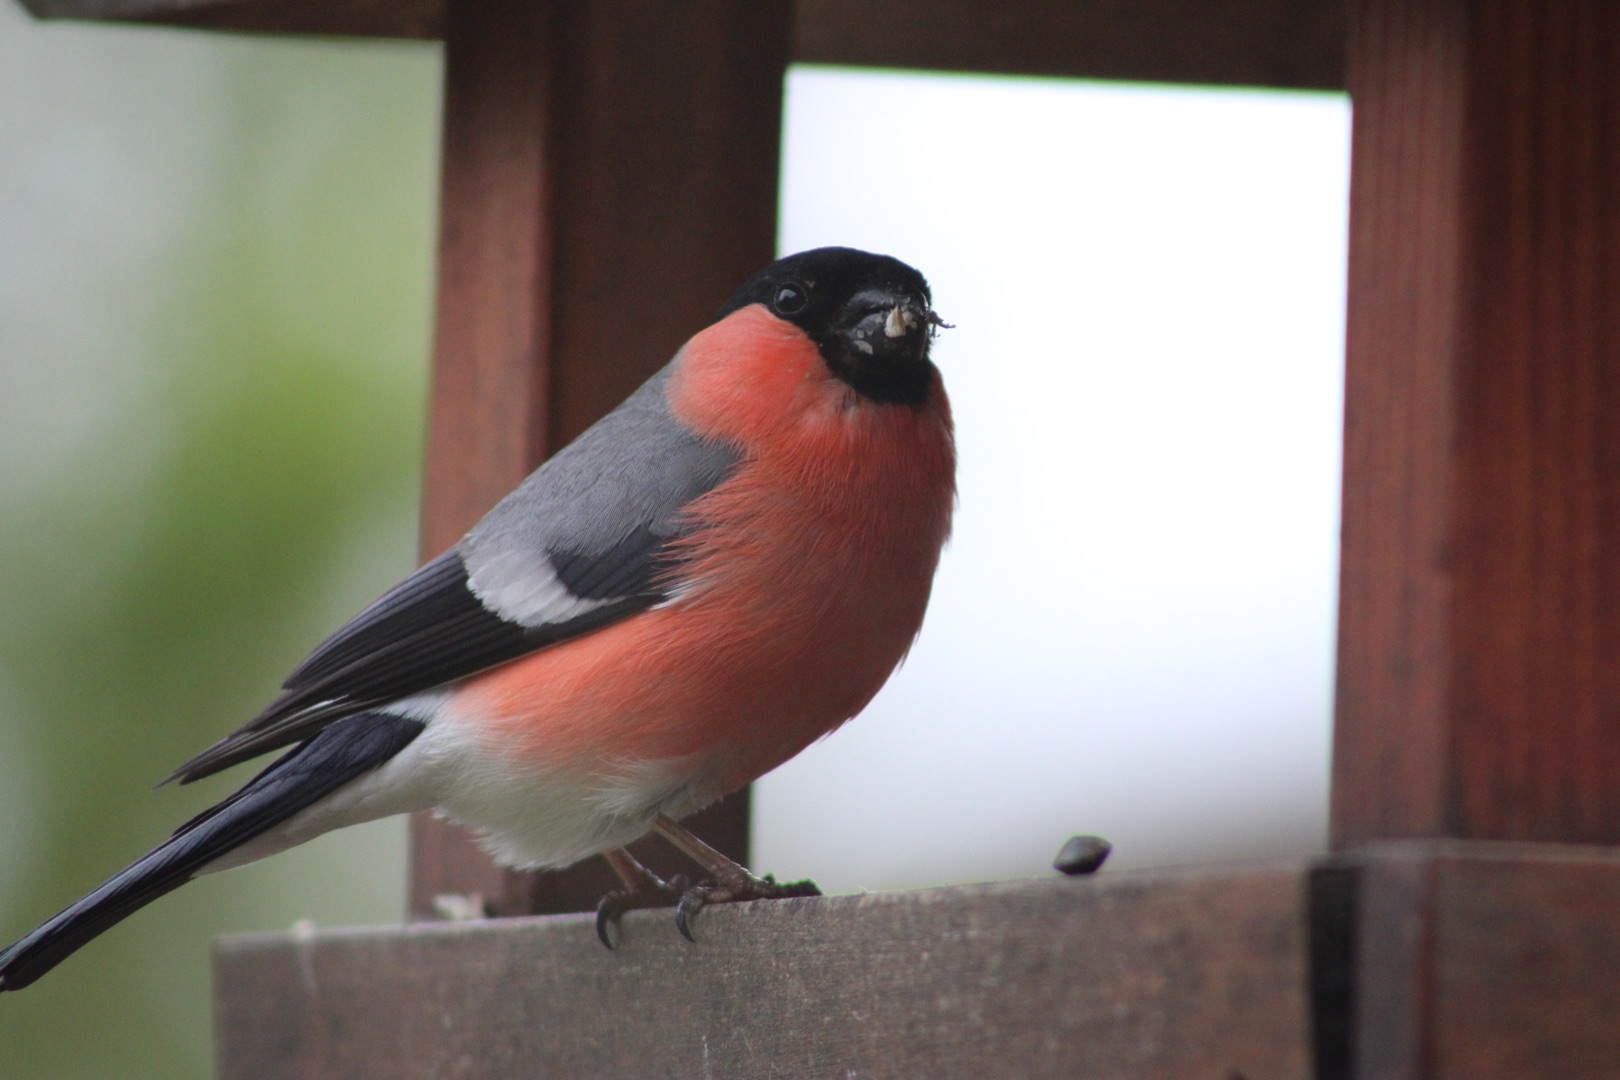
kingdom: Animalia
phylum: Chordata
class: Aves
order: Passeriformes
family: Fringillidae
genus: Pyrrhula
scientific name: Pyrrhula pyrrhula
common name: Dompap
